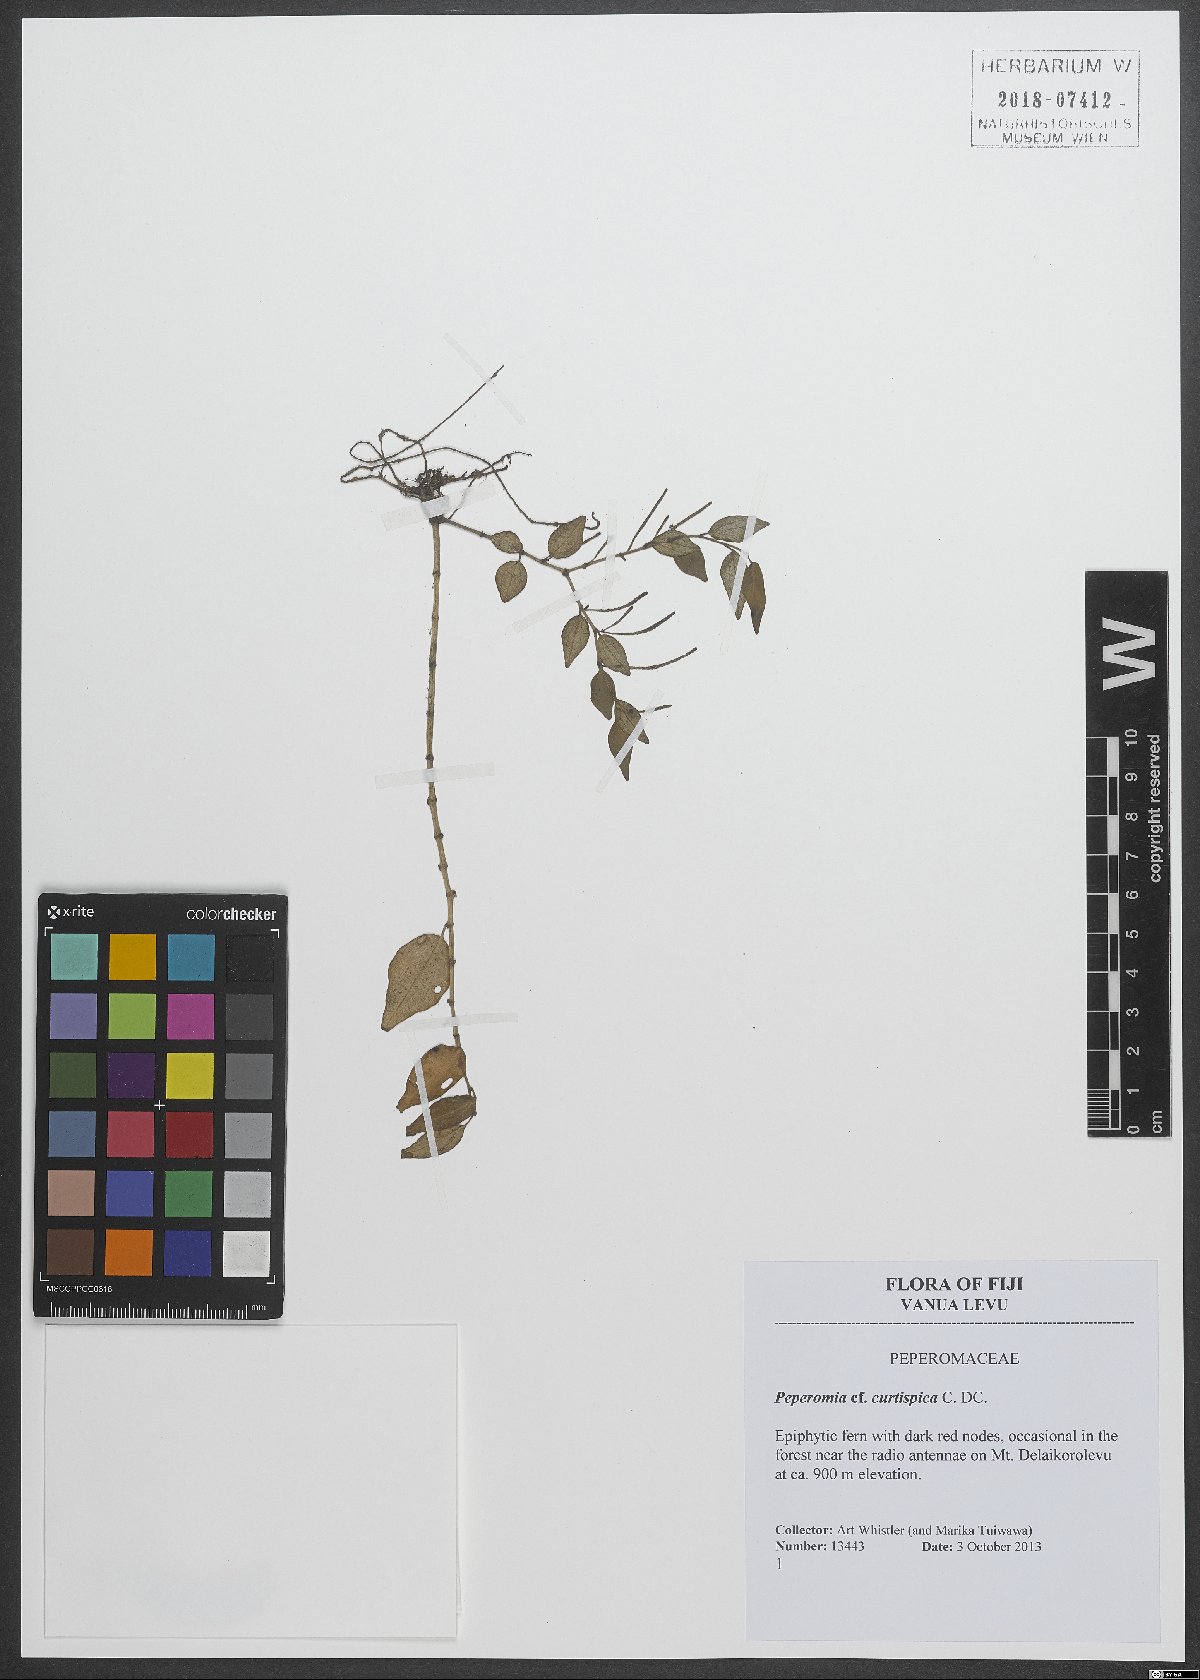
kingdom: Plantae
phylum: Tracheophyta
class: Magnoliopsida
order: Piperales
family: Piperaceae
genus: Peperomia
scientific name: Peperomia curtispica
